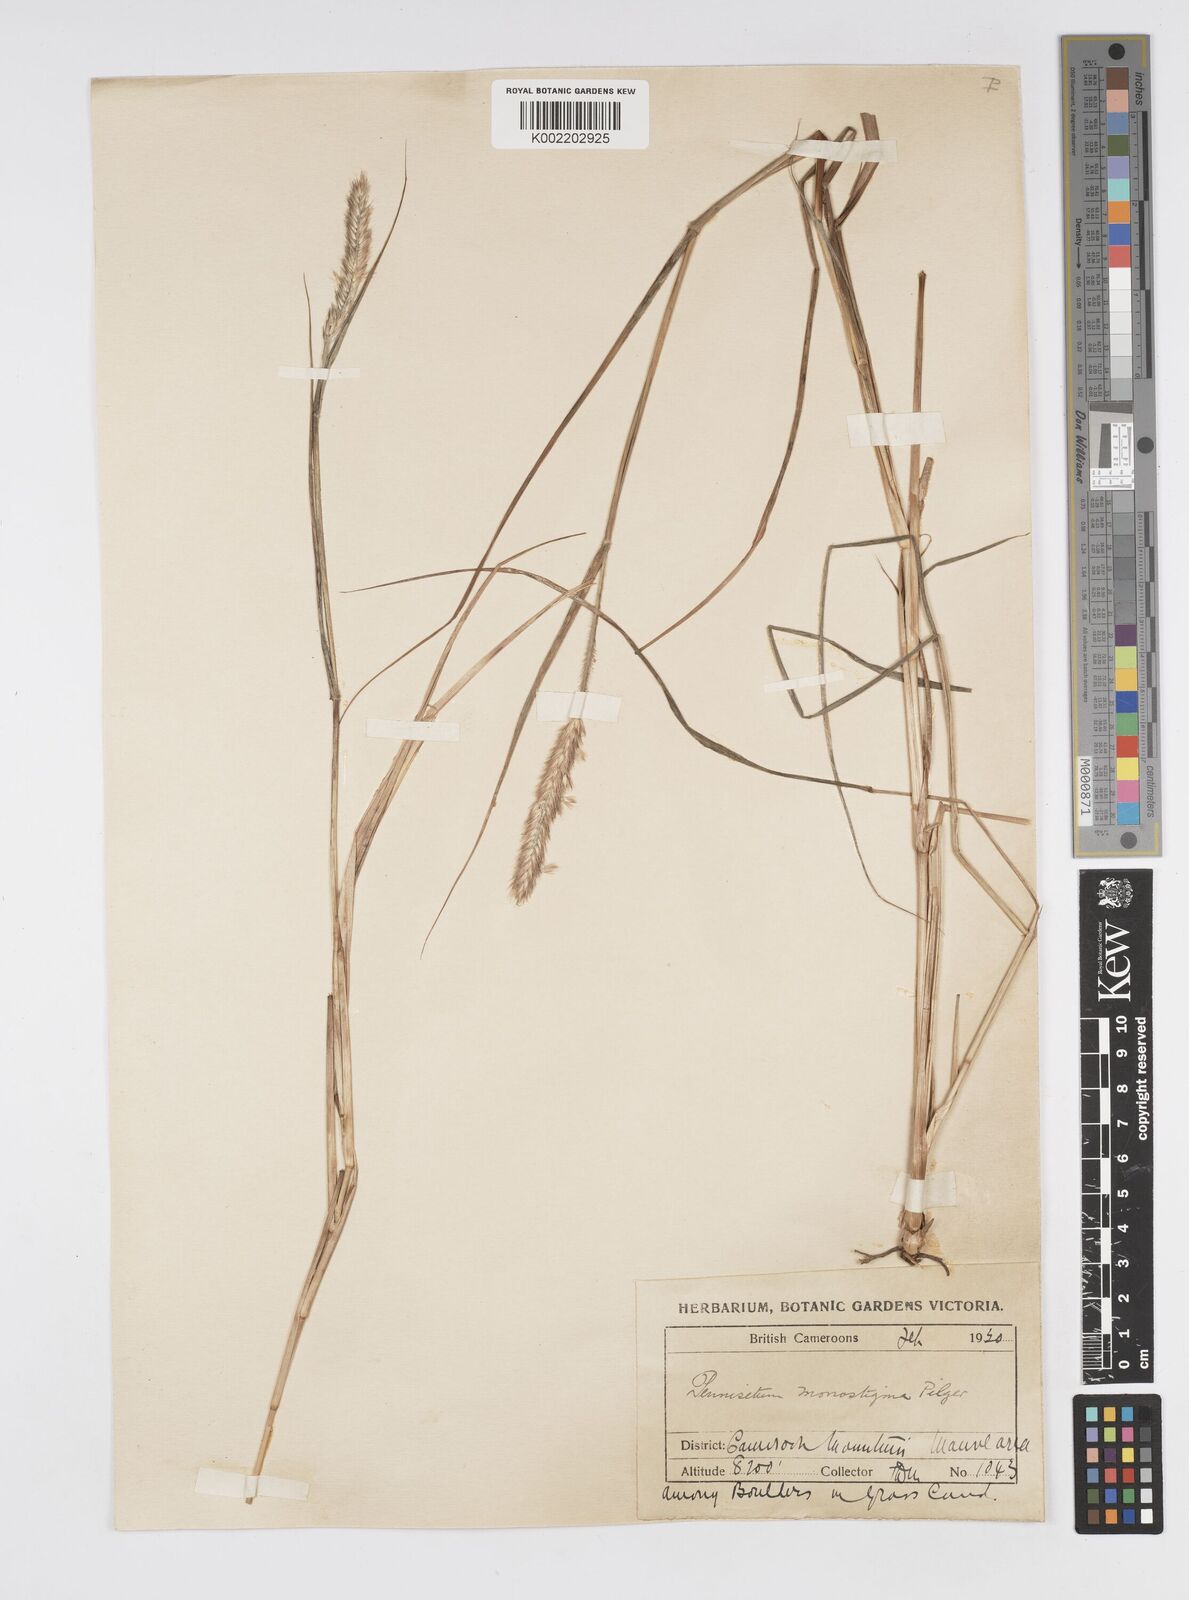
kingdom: Plantae
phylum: Tracheophyta
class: Liliopsida
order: Poales
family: Poaceae
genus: Cenchrus
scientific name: Cenchrus monostigma
